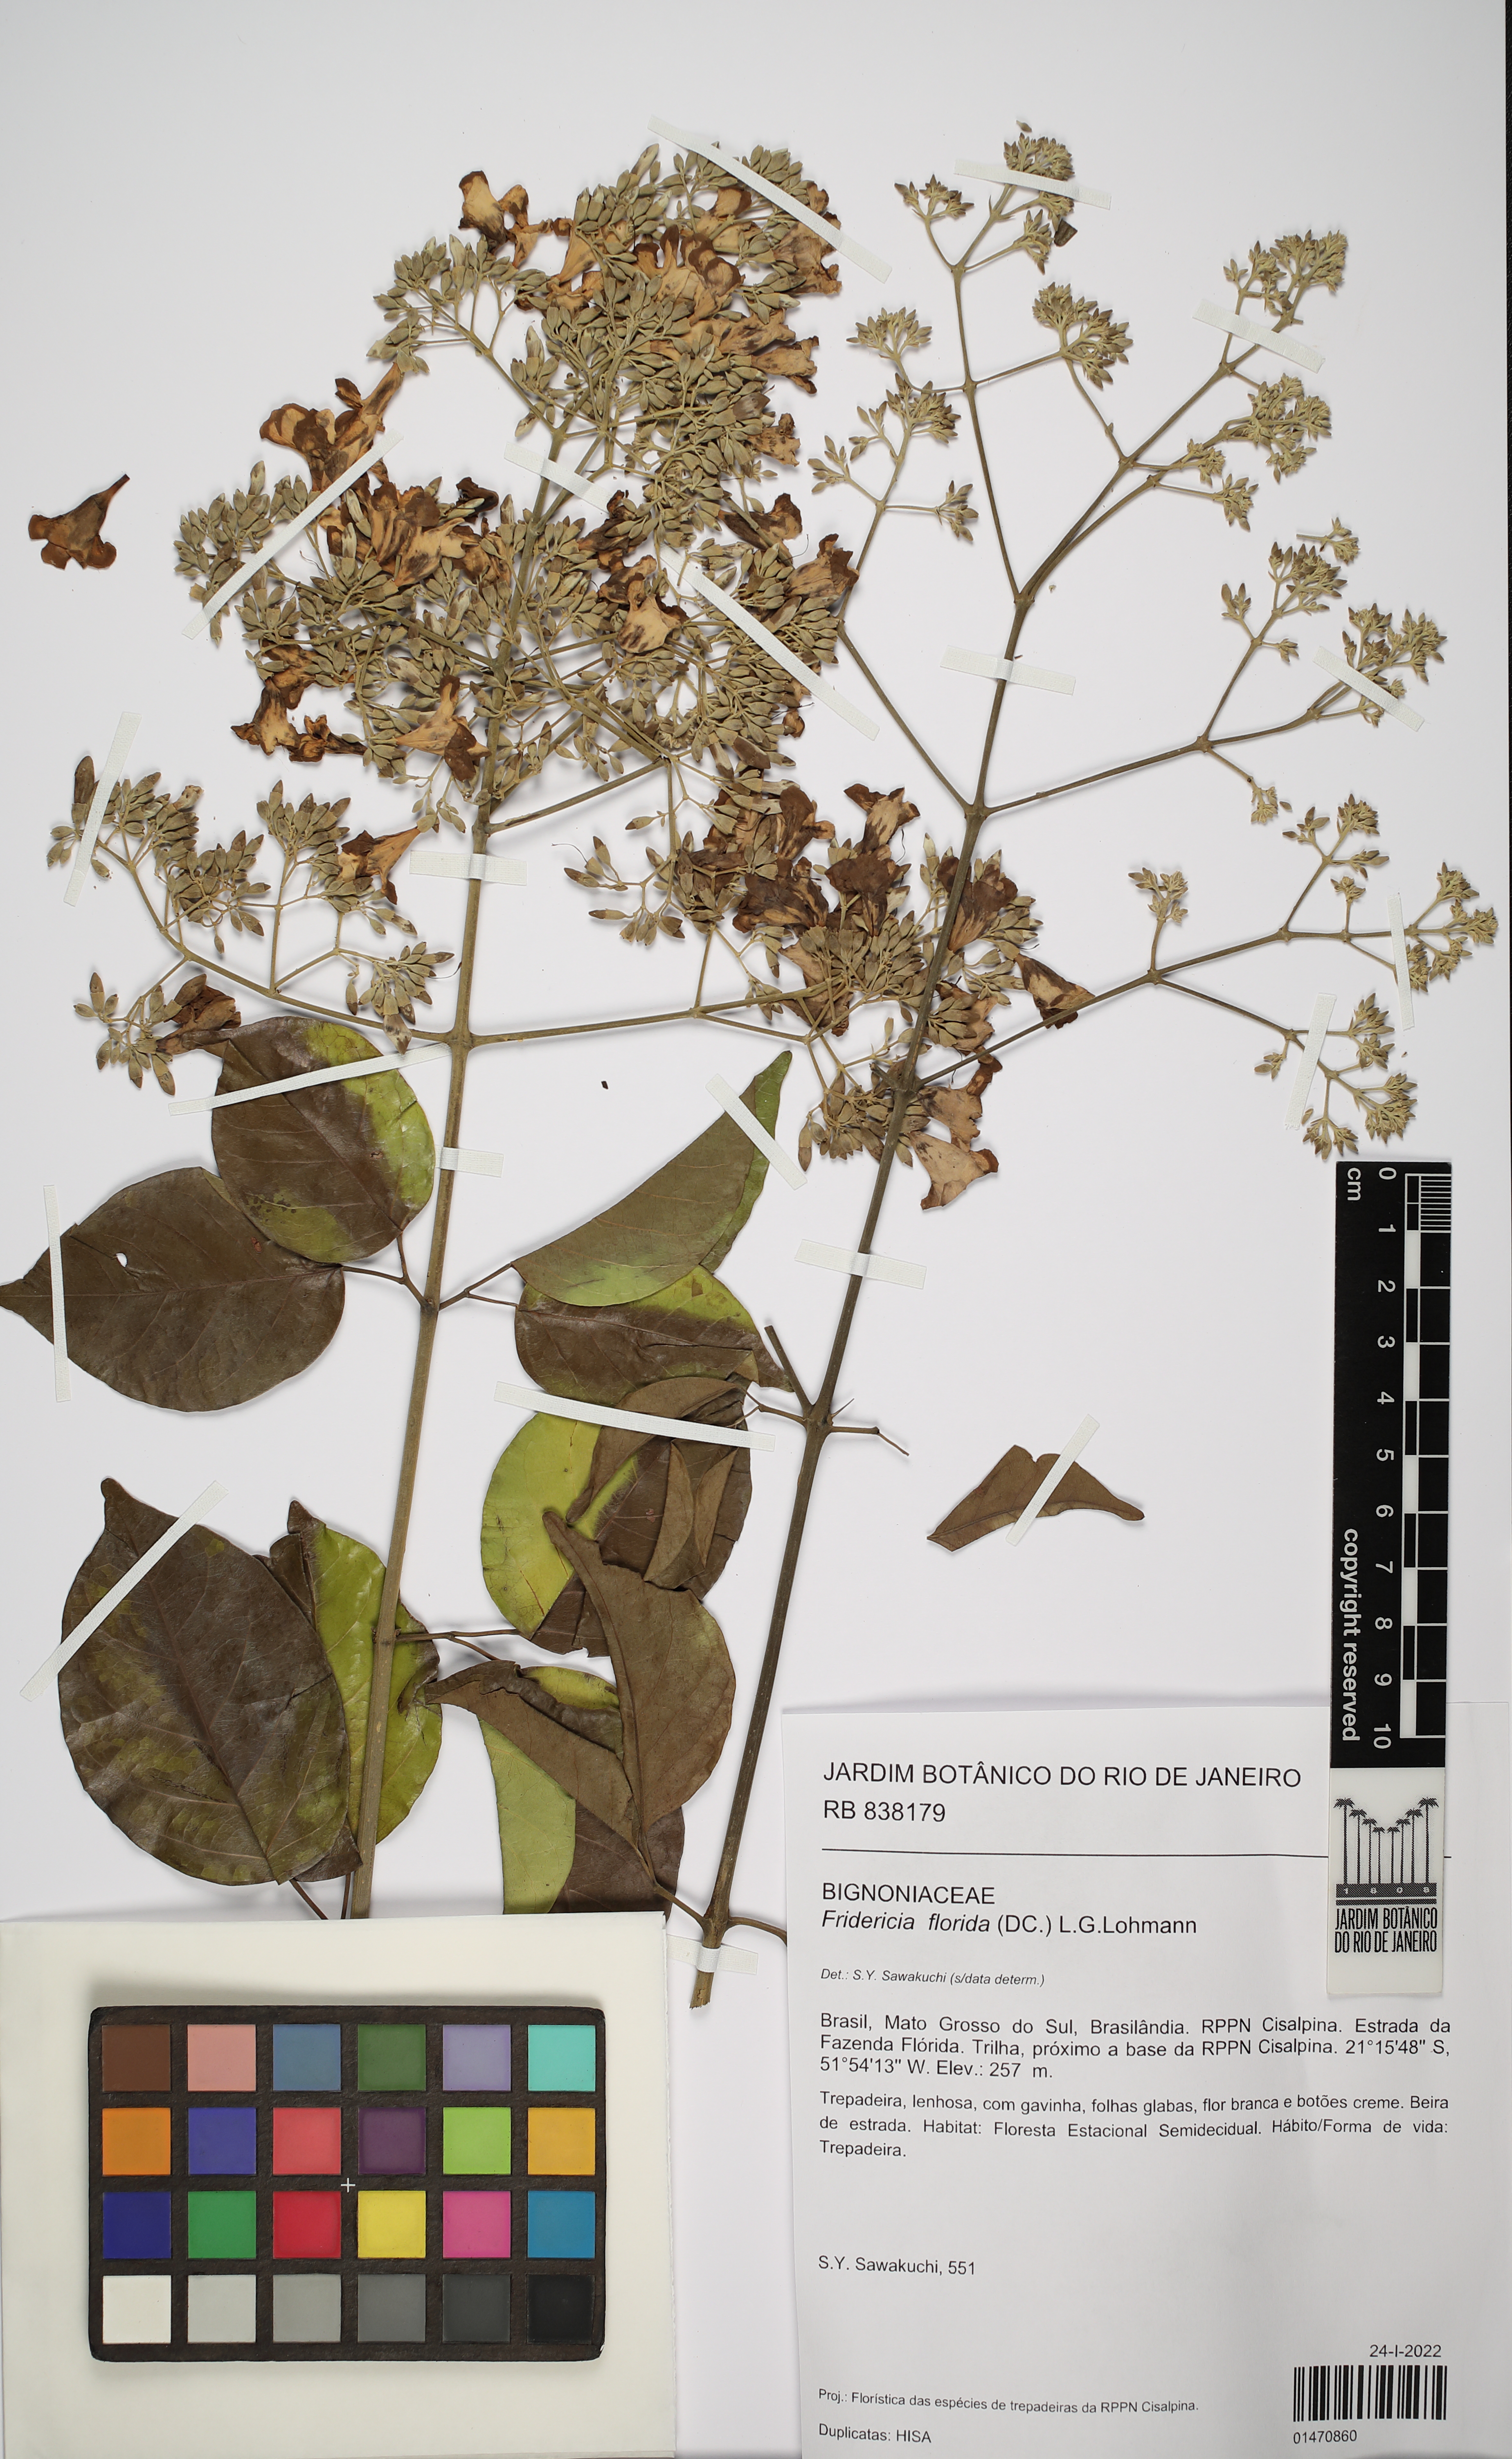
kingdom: Plantae
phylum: Tracheophyta
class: Magnoliopsida
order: Lamiales
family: Bignoniaceae
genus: Fridericia
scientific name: Fridericia florida
